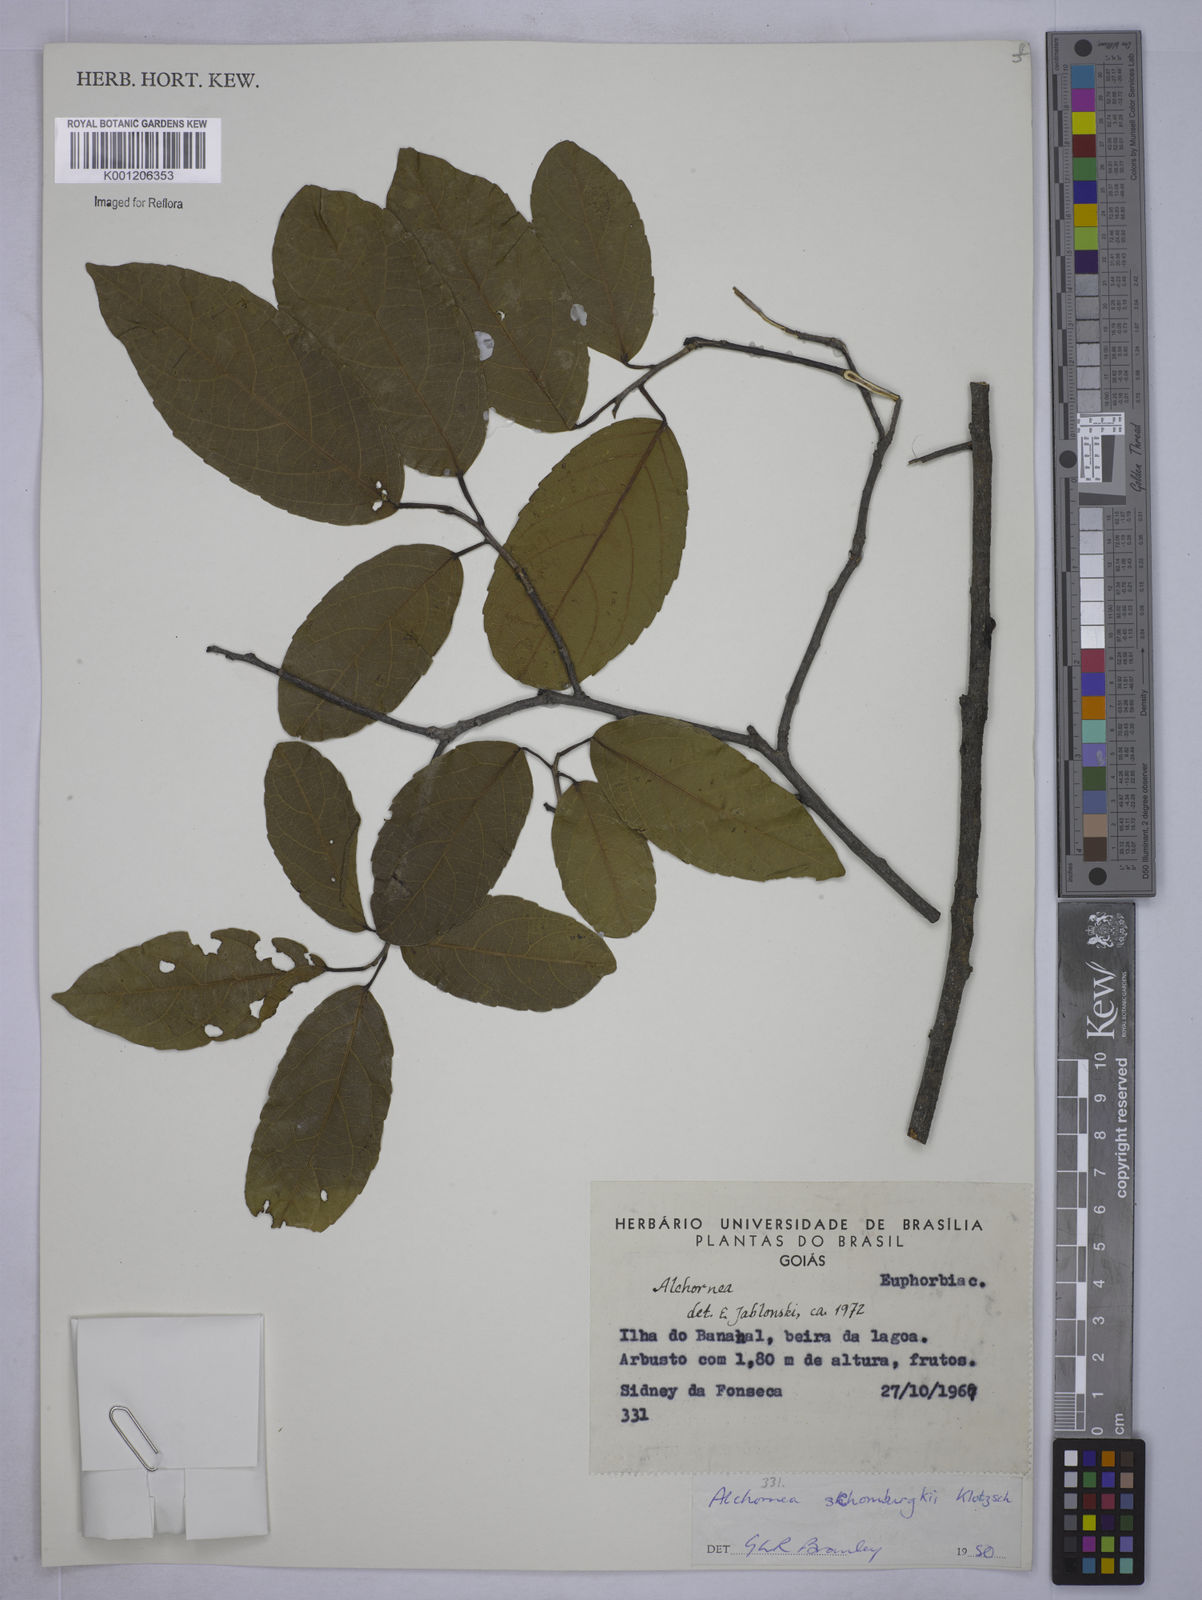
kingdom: Plantae
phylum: Tracheophyta
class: Magnoliopsida
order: Malpighiales
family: Euphorbiaceae
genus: Alchornea
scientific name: Alchornea discolor
